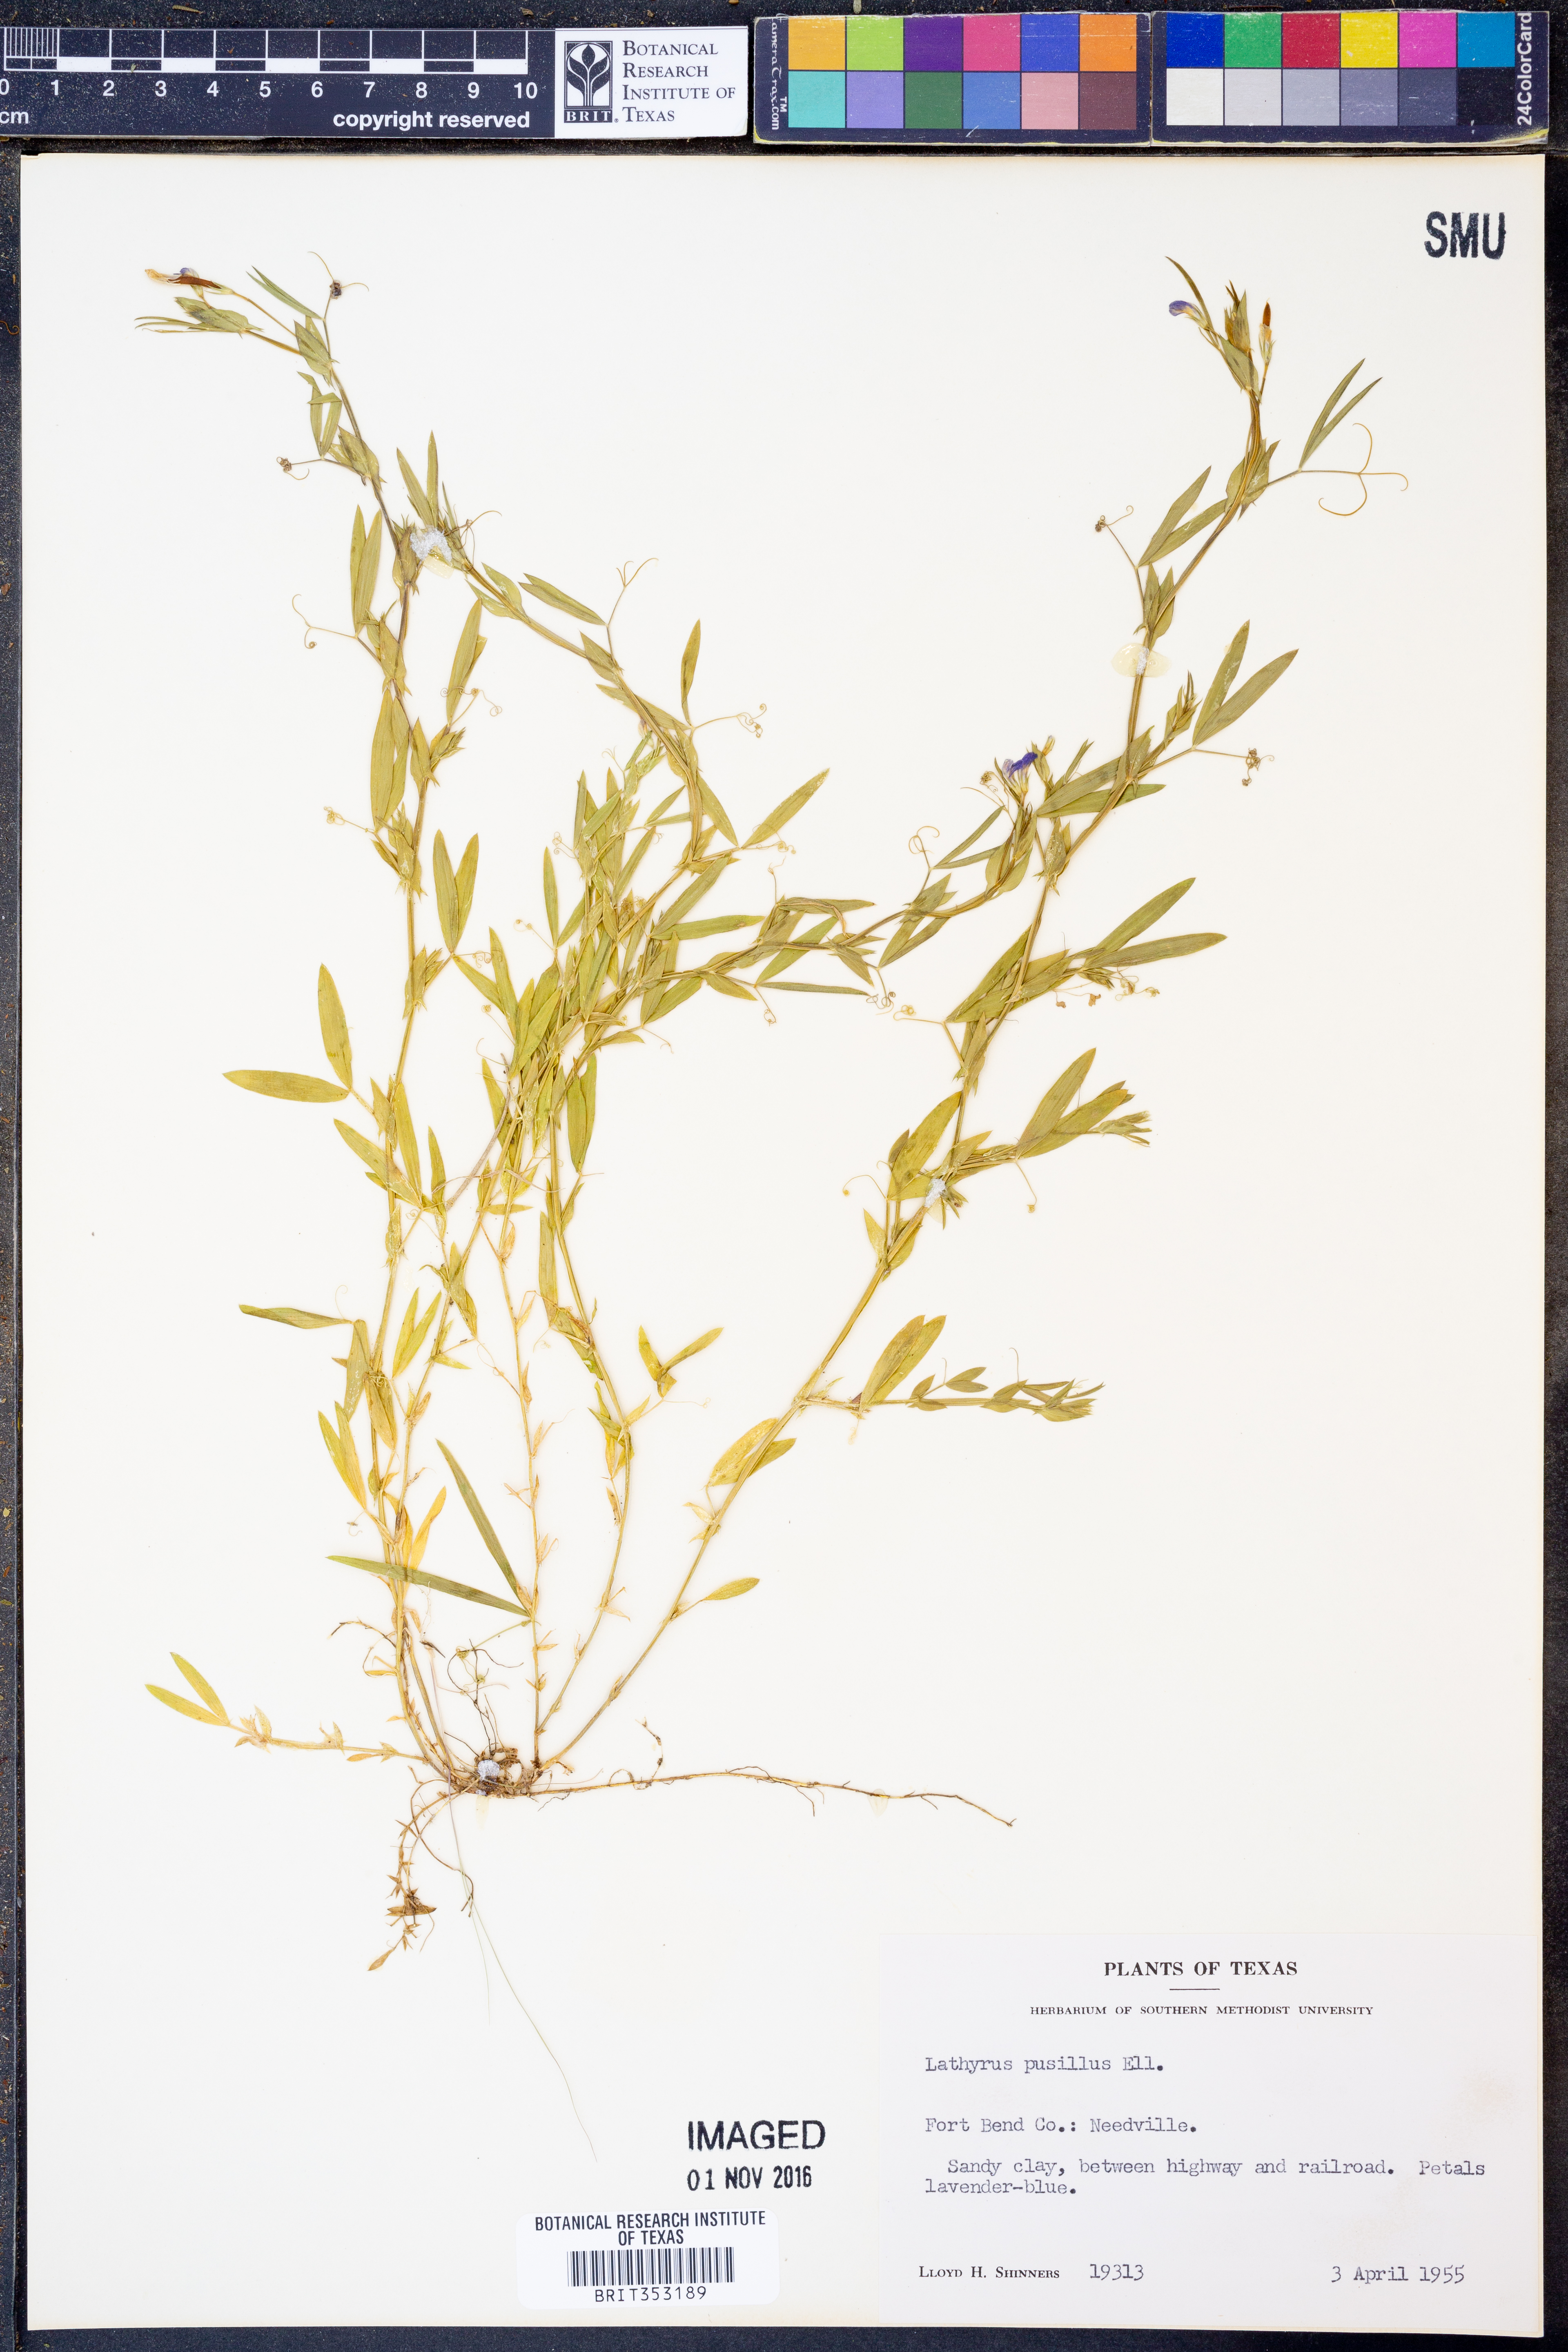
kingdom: Plantae
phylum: Tracheophyta
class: Magnoliopsida
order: Fabales
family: Fabaceae
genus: Lathyrus
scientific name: Lathyrus pusillus
